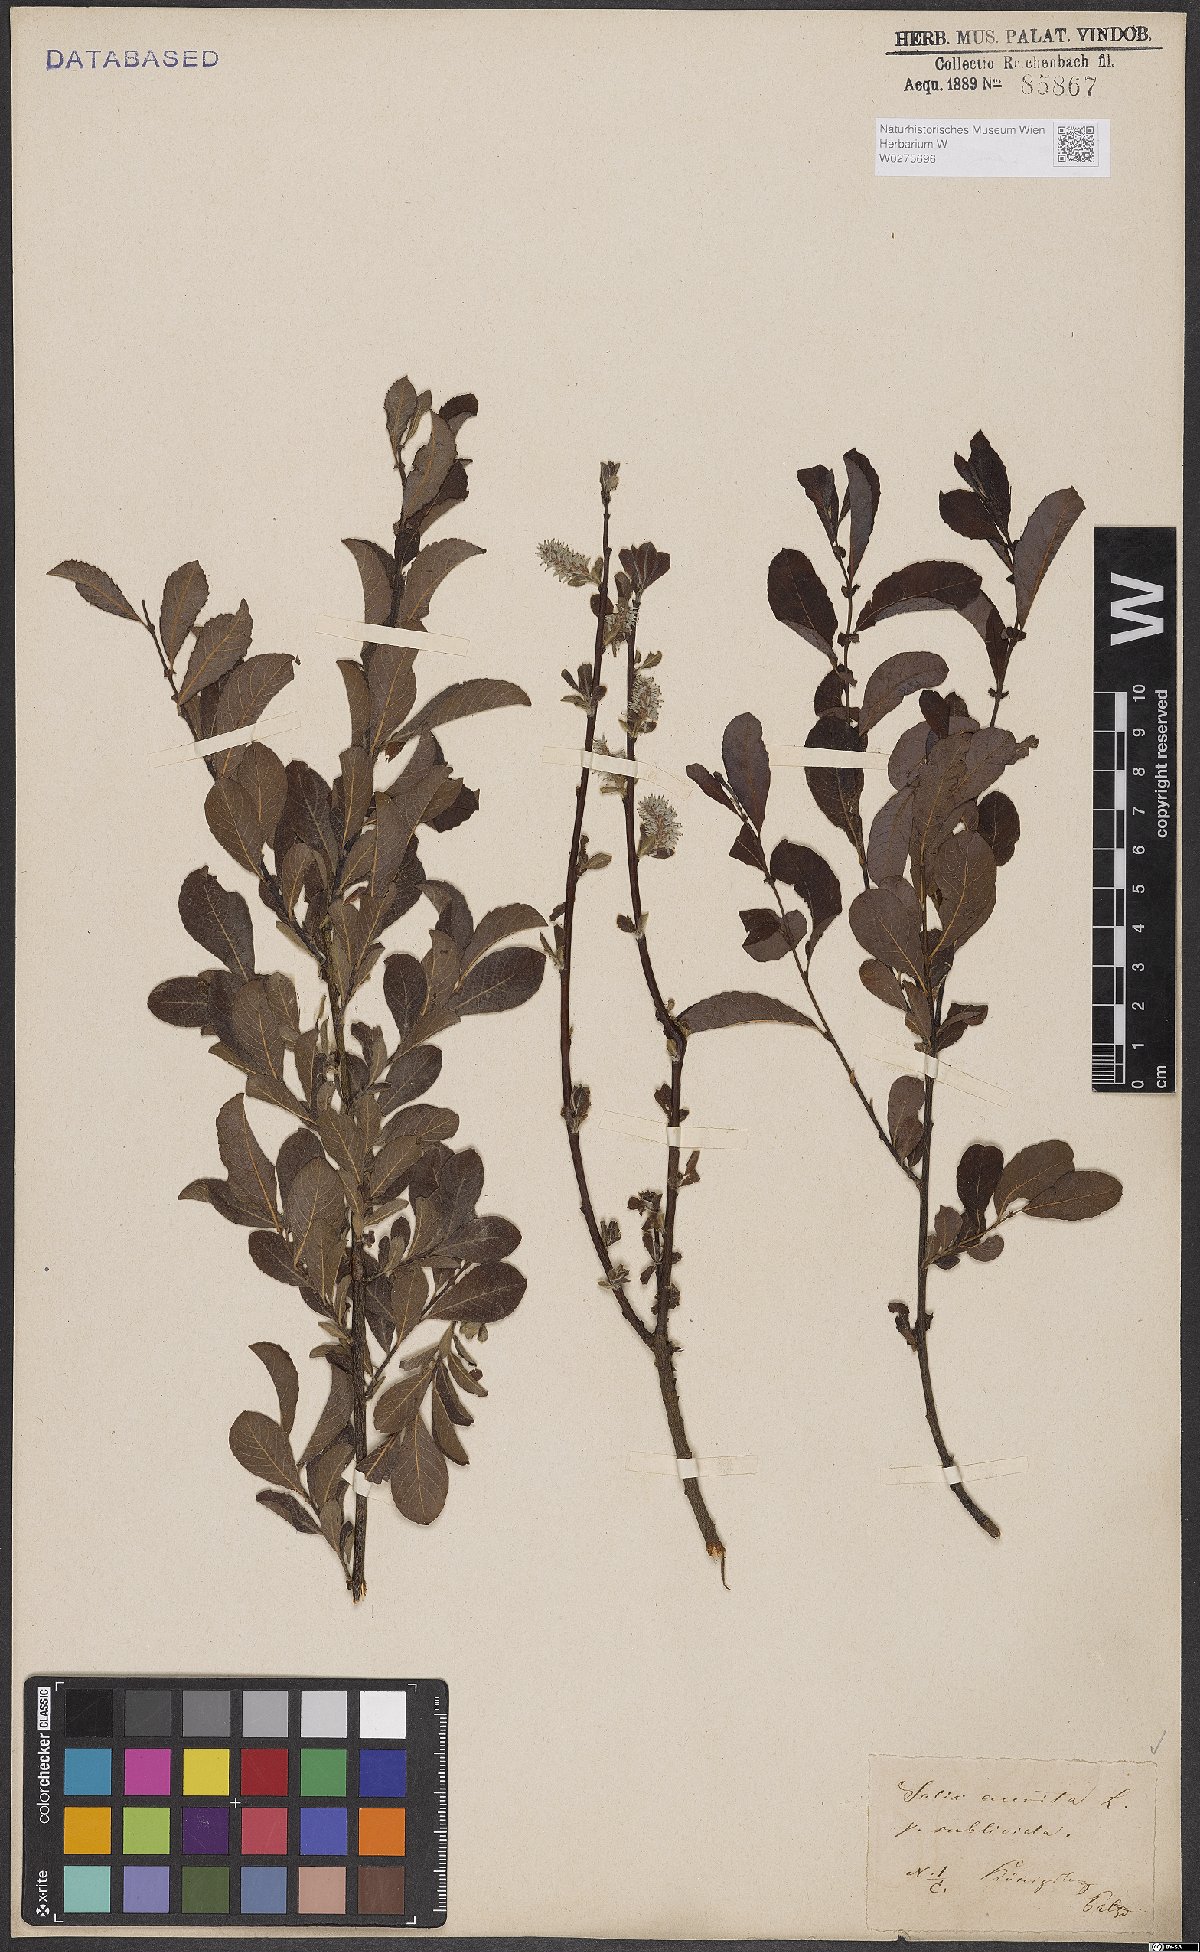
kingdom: Plantae
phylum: Tracheophyta
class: Magnoliopsida
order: Malpighiales
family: Salicaceae
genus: Salix
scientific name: Salix aurita
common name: Eared willow
